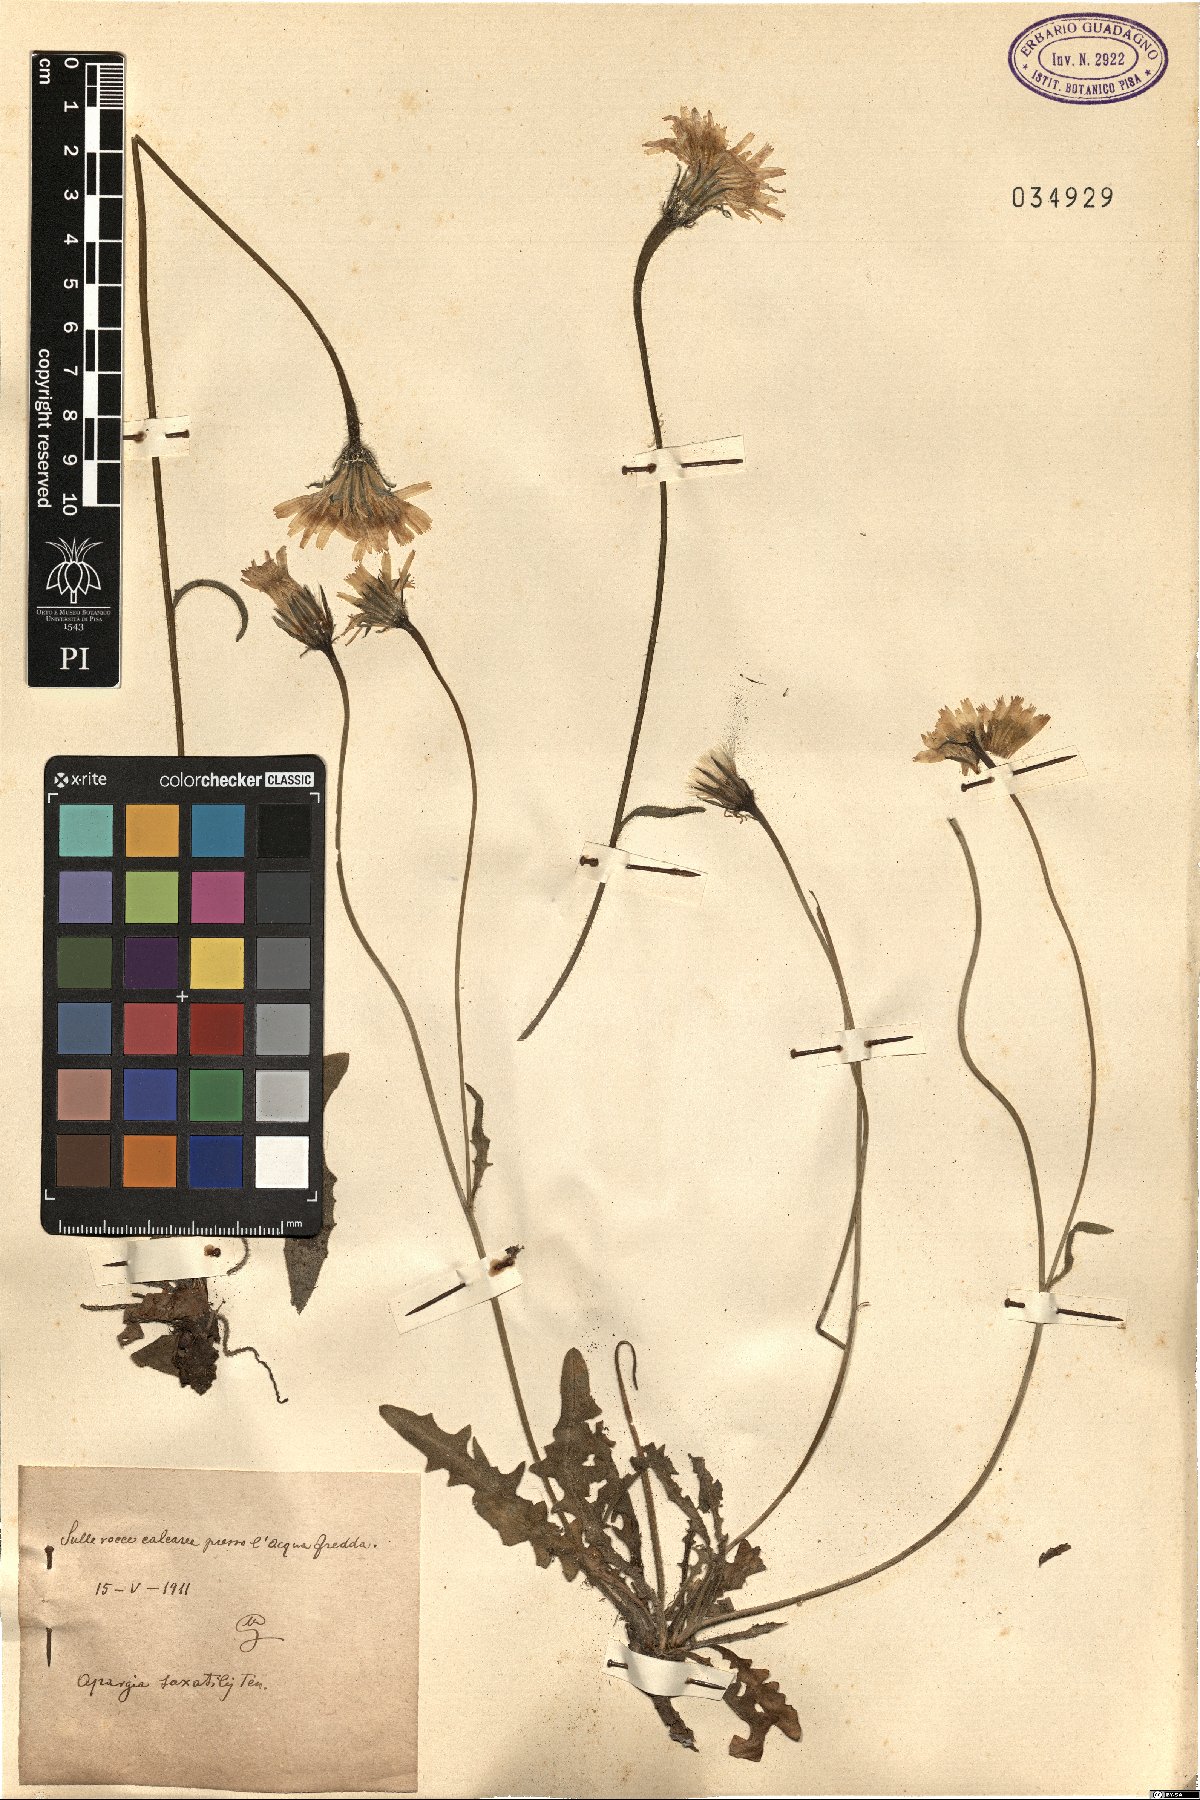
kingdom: Plantae
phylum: Tracheophyta
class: Magnoliopsida
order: Asterales
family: Asteraceae
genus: Leontodon
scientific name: Leontodon crispus
